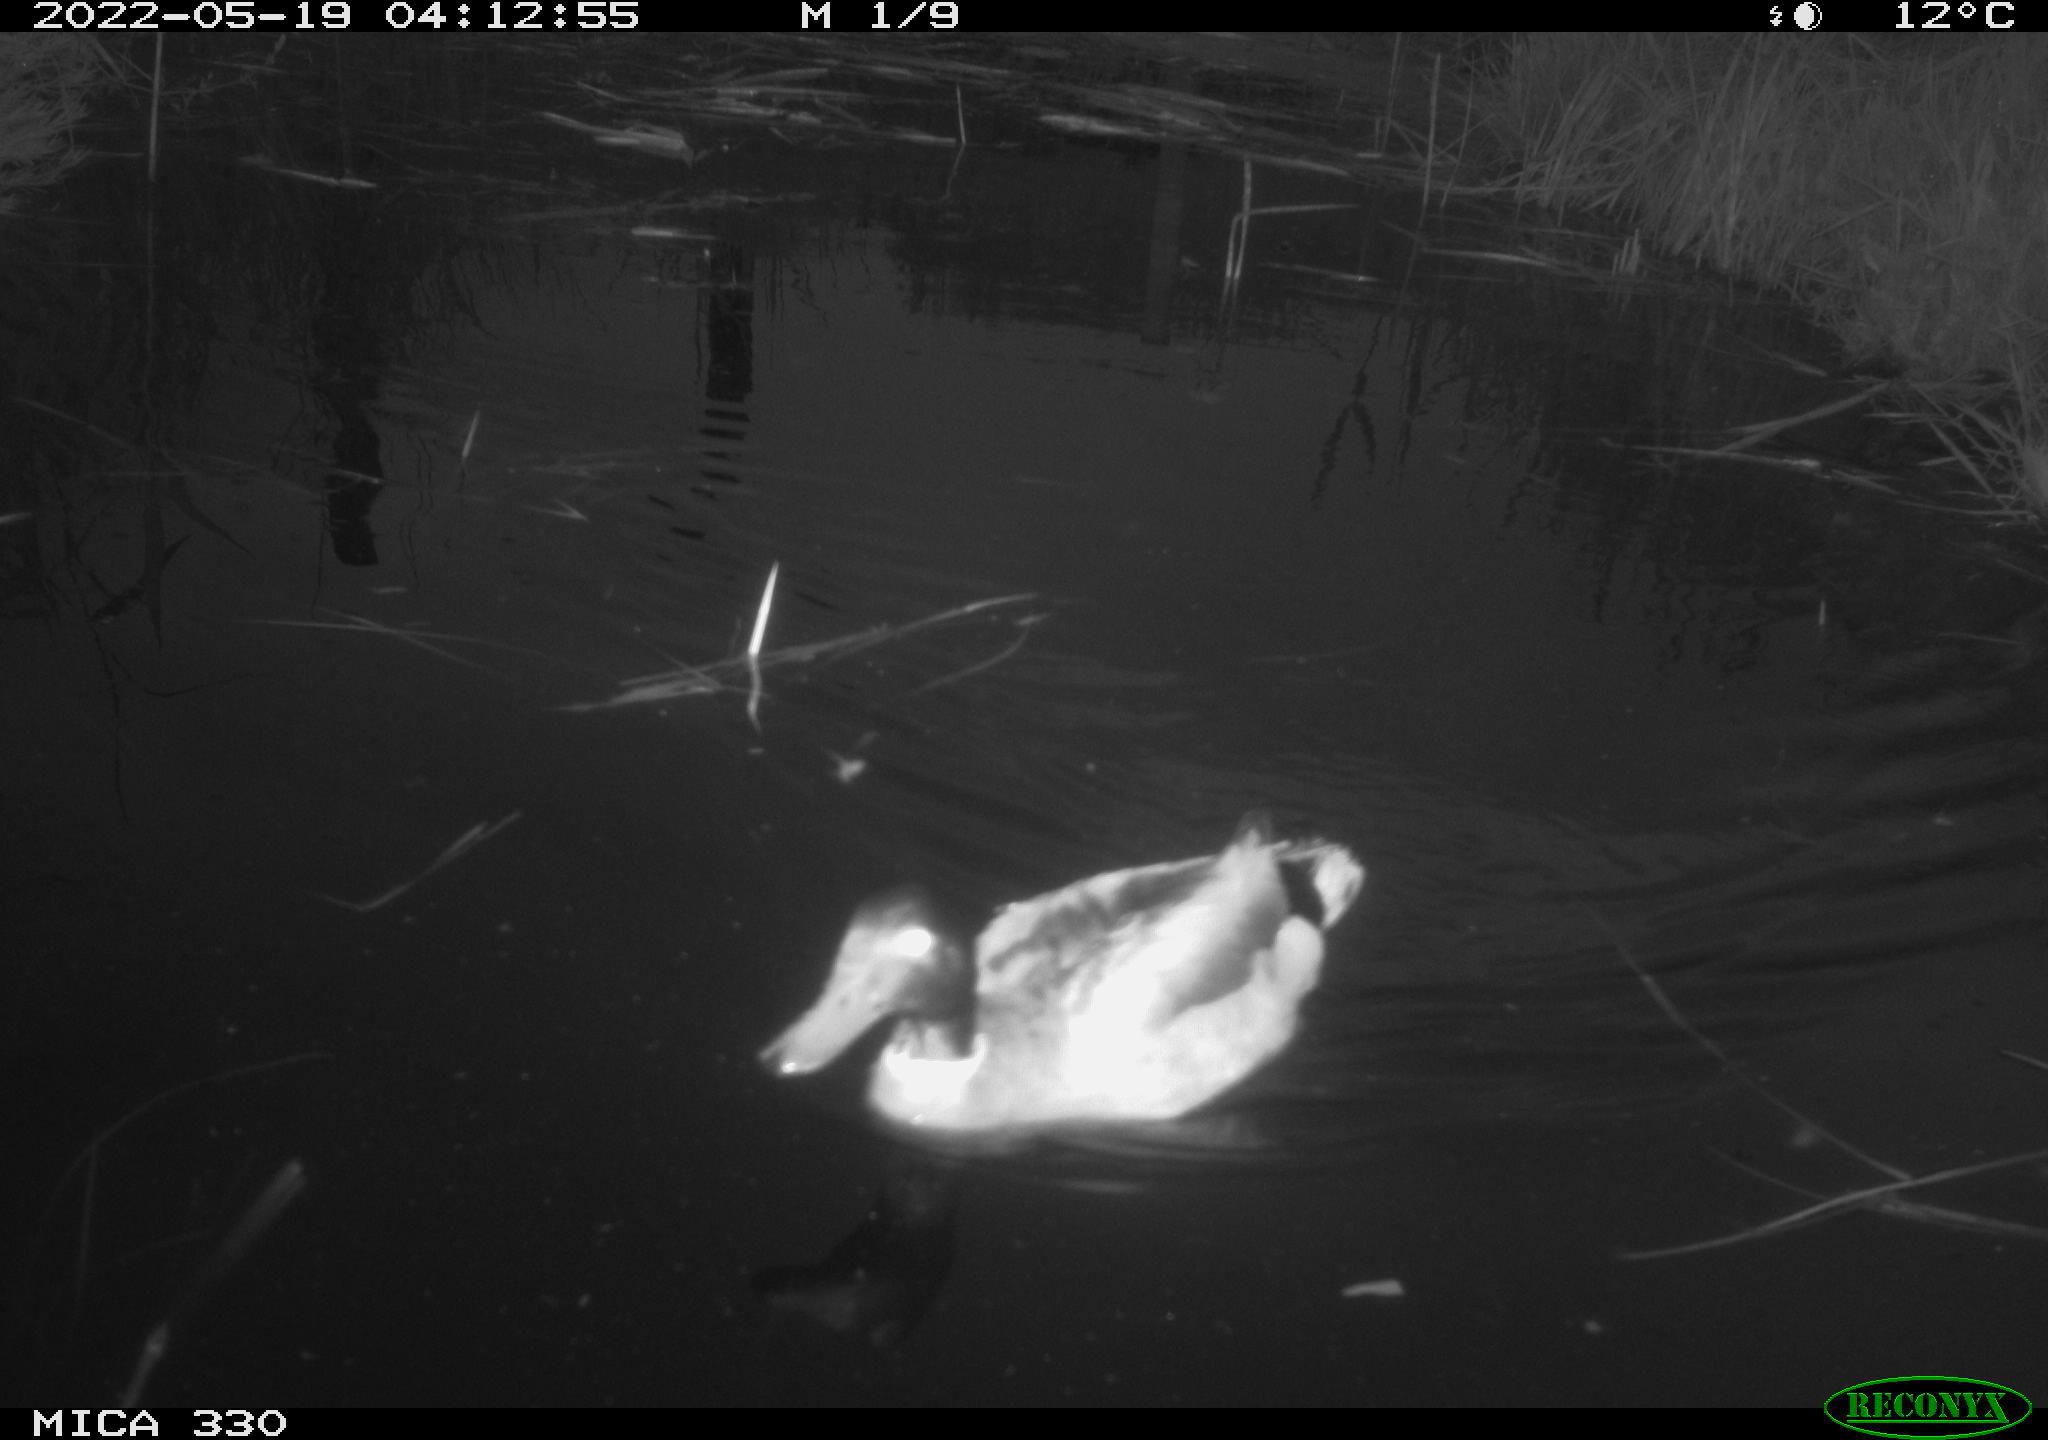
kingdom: Animalia
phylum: Chordata
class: Aves
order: Anseriformes
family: Anatidae
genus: Anas
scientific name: Anas platyrhynchos
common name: Mallard
